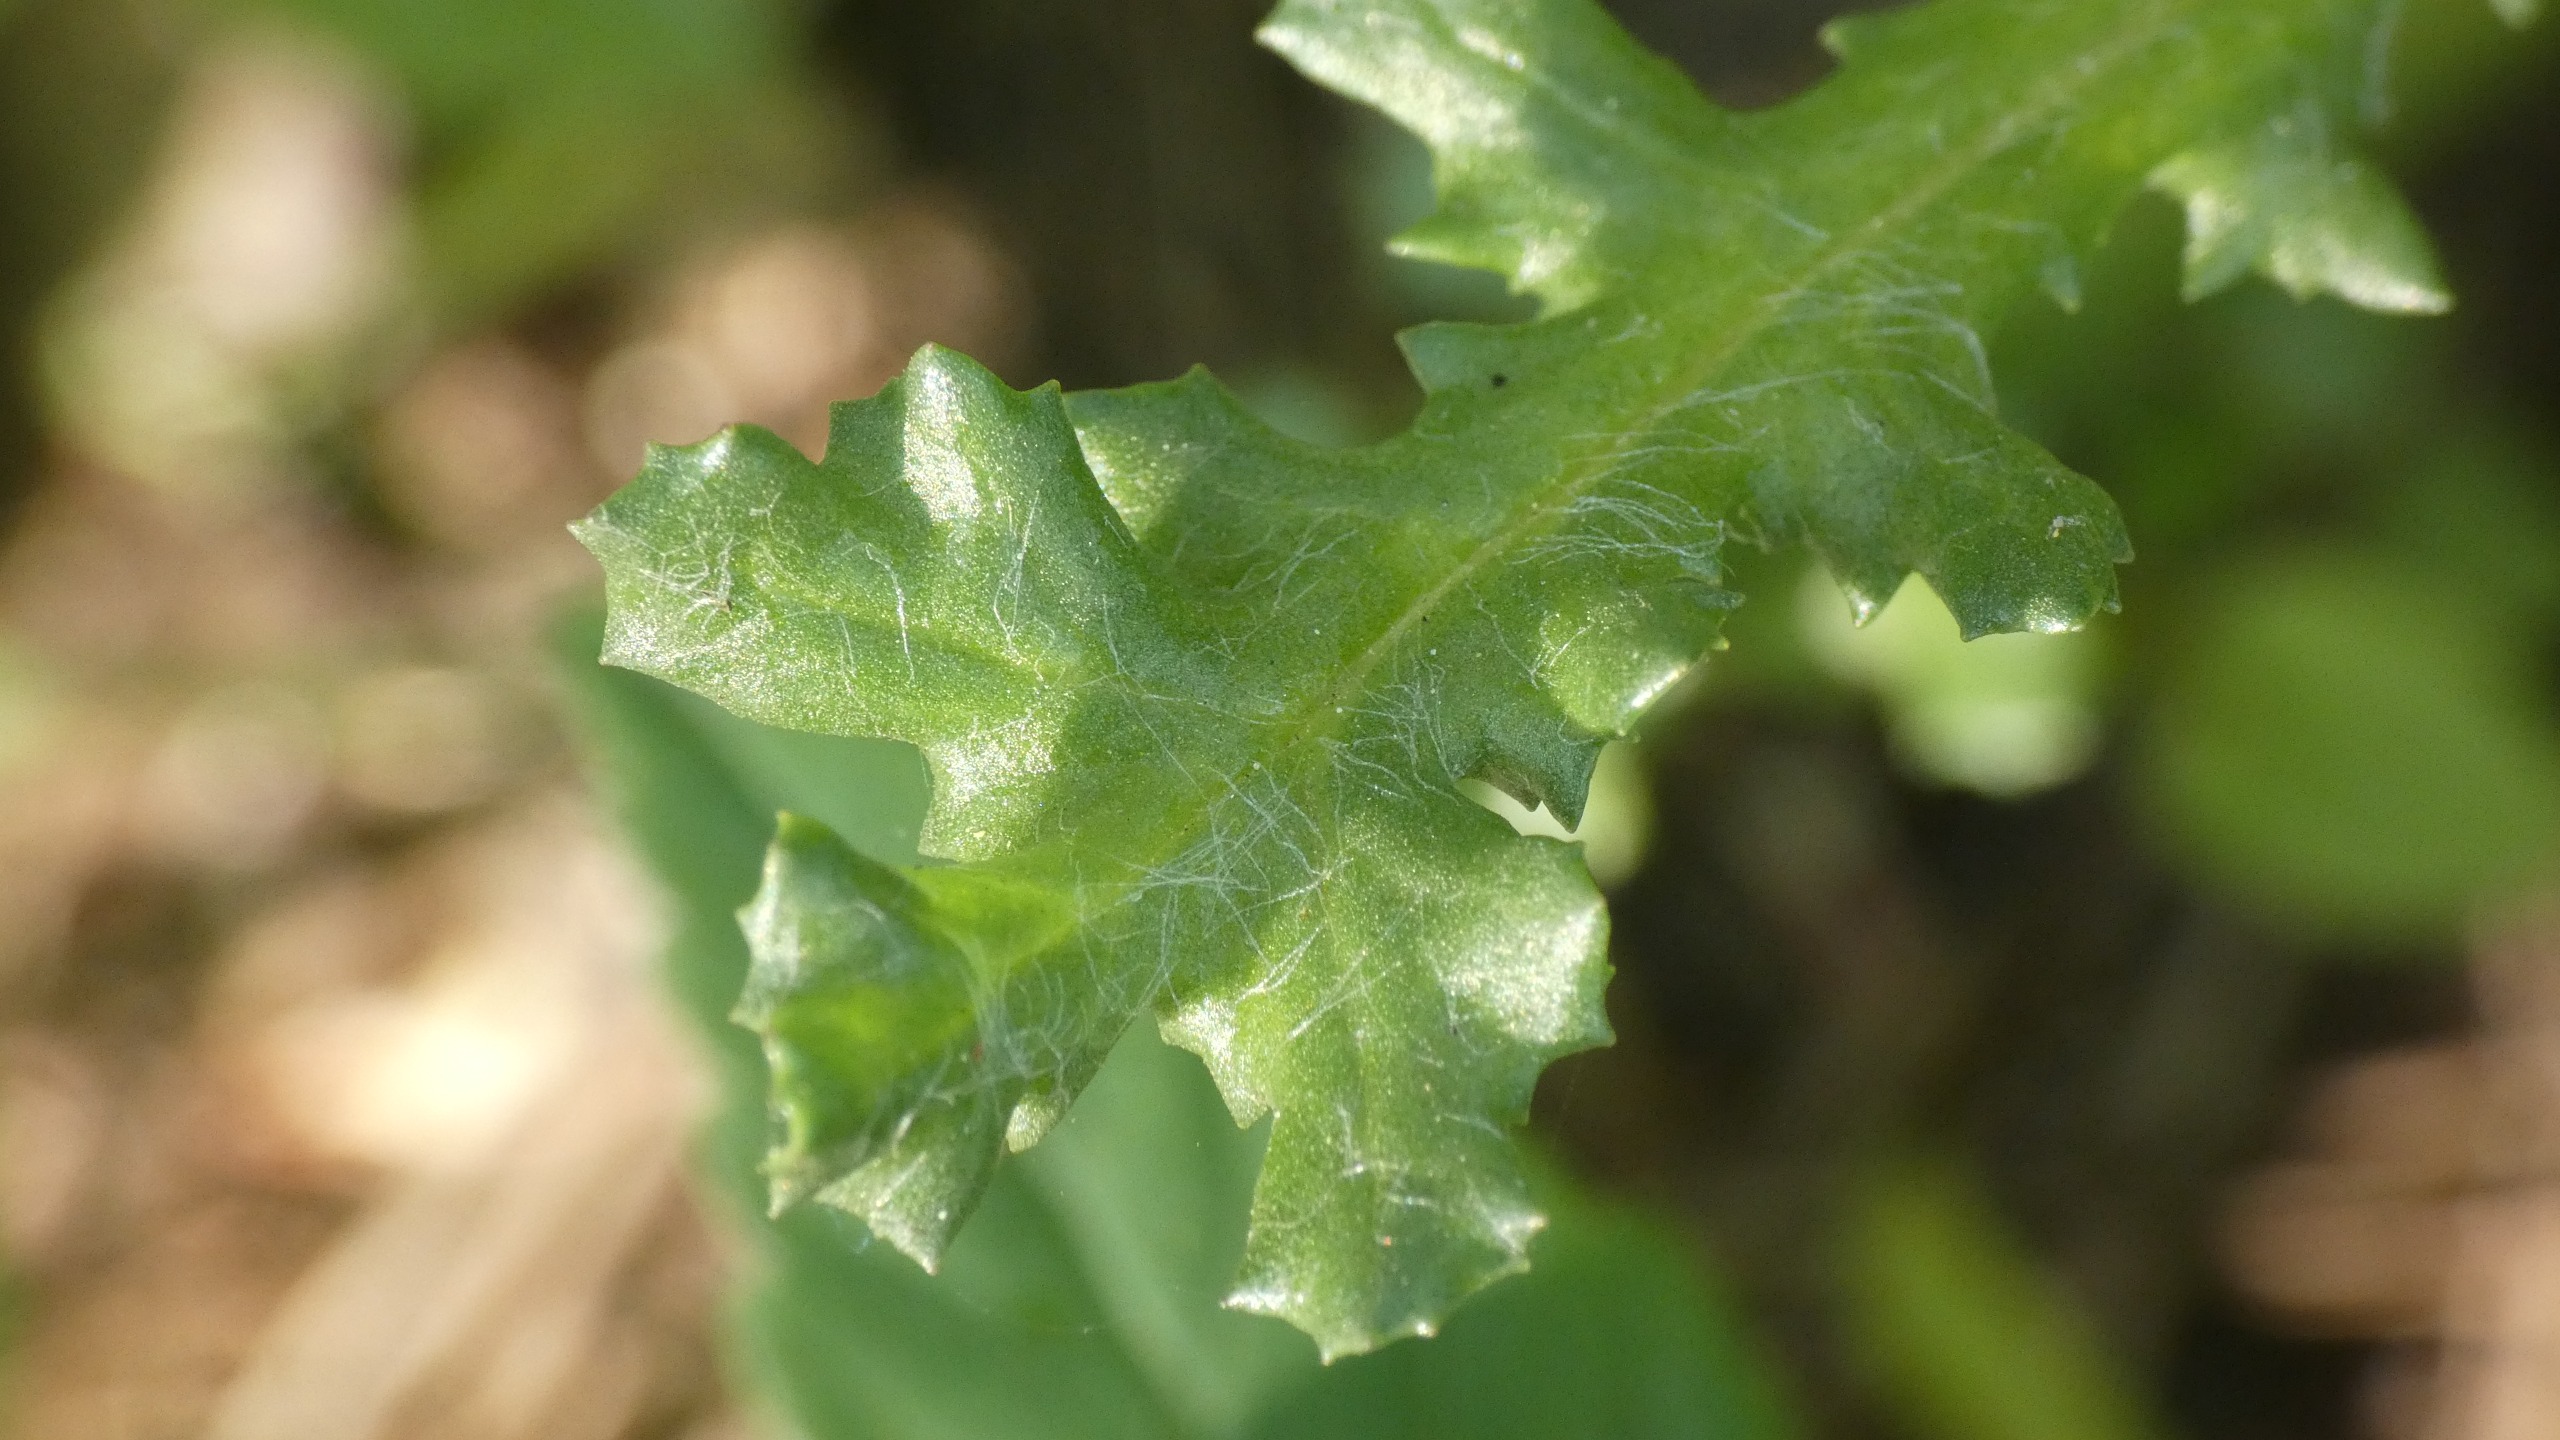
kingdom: Plantae
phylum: Tracheophyta
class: Magnoliopsida
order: Asterales
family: Asteraceae
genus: Senecio
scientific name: Senecio vulgaris
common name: Almindelig brandbæger
